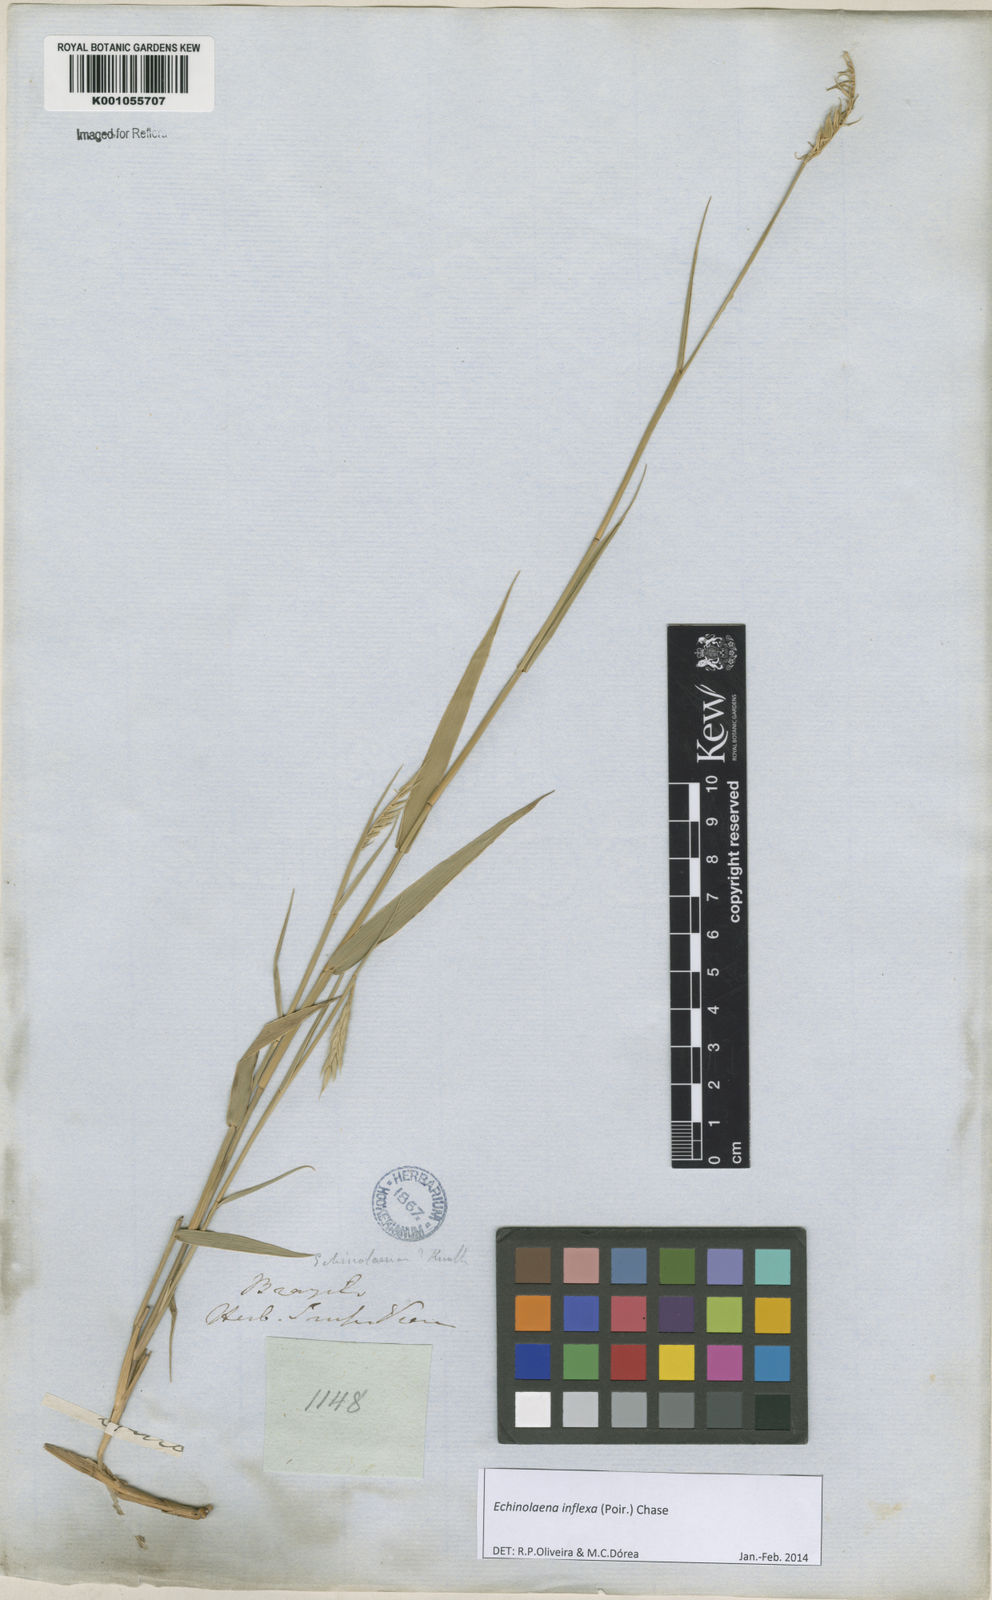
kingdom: Plantae
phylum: Tracheophyta
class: Liliopsida
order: Poales
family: Poaceae
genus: Echinolaena
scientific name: Echinolaena inflexa
